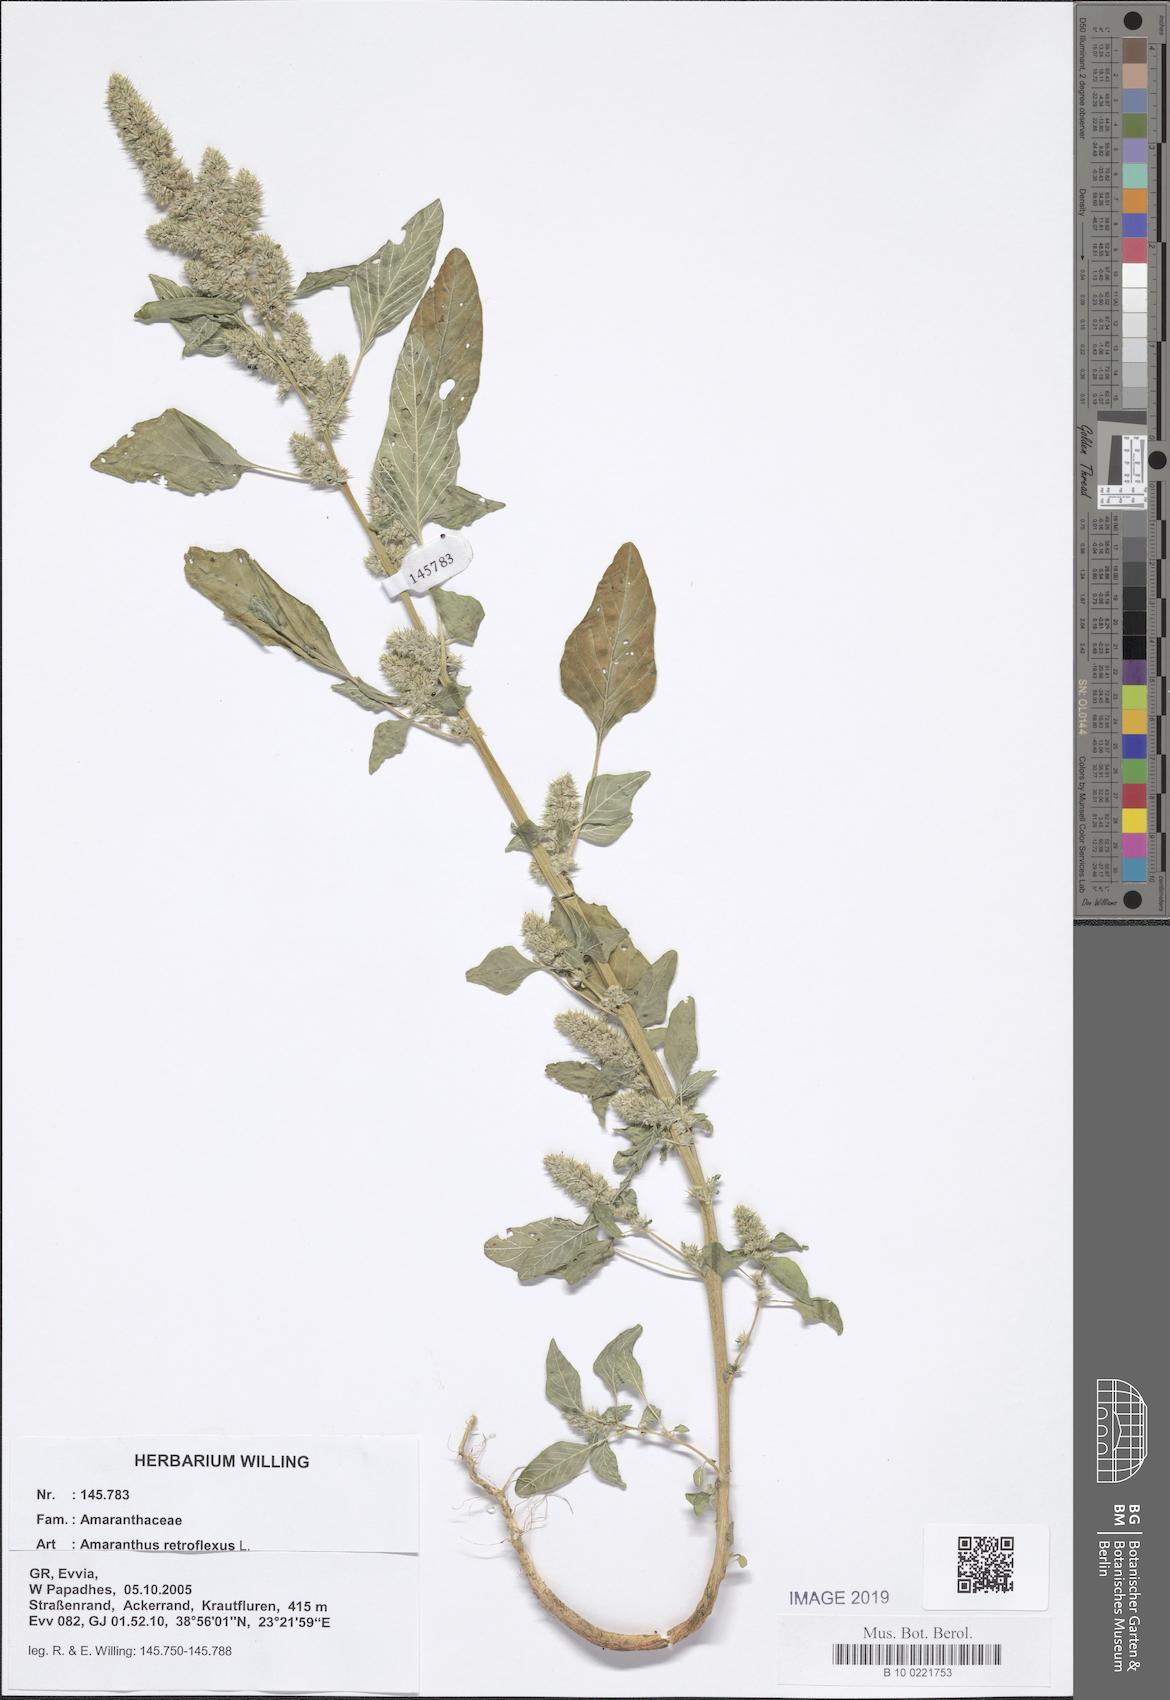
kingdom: Plantae
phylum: Tracheophyta
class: Magnoliopsida
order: Caryophyllales
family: Amaranthaceae
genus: Amaranthus
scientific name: Amaranthus retroflexus
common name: Redroot amaranth
